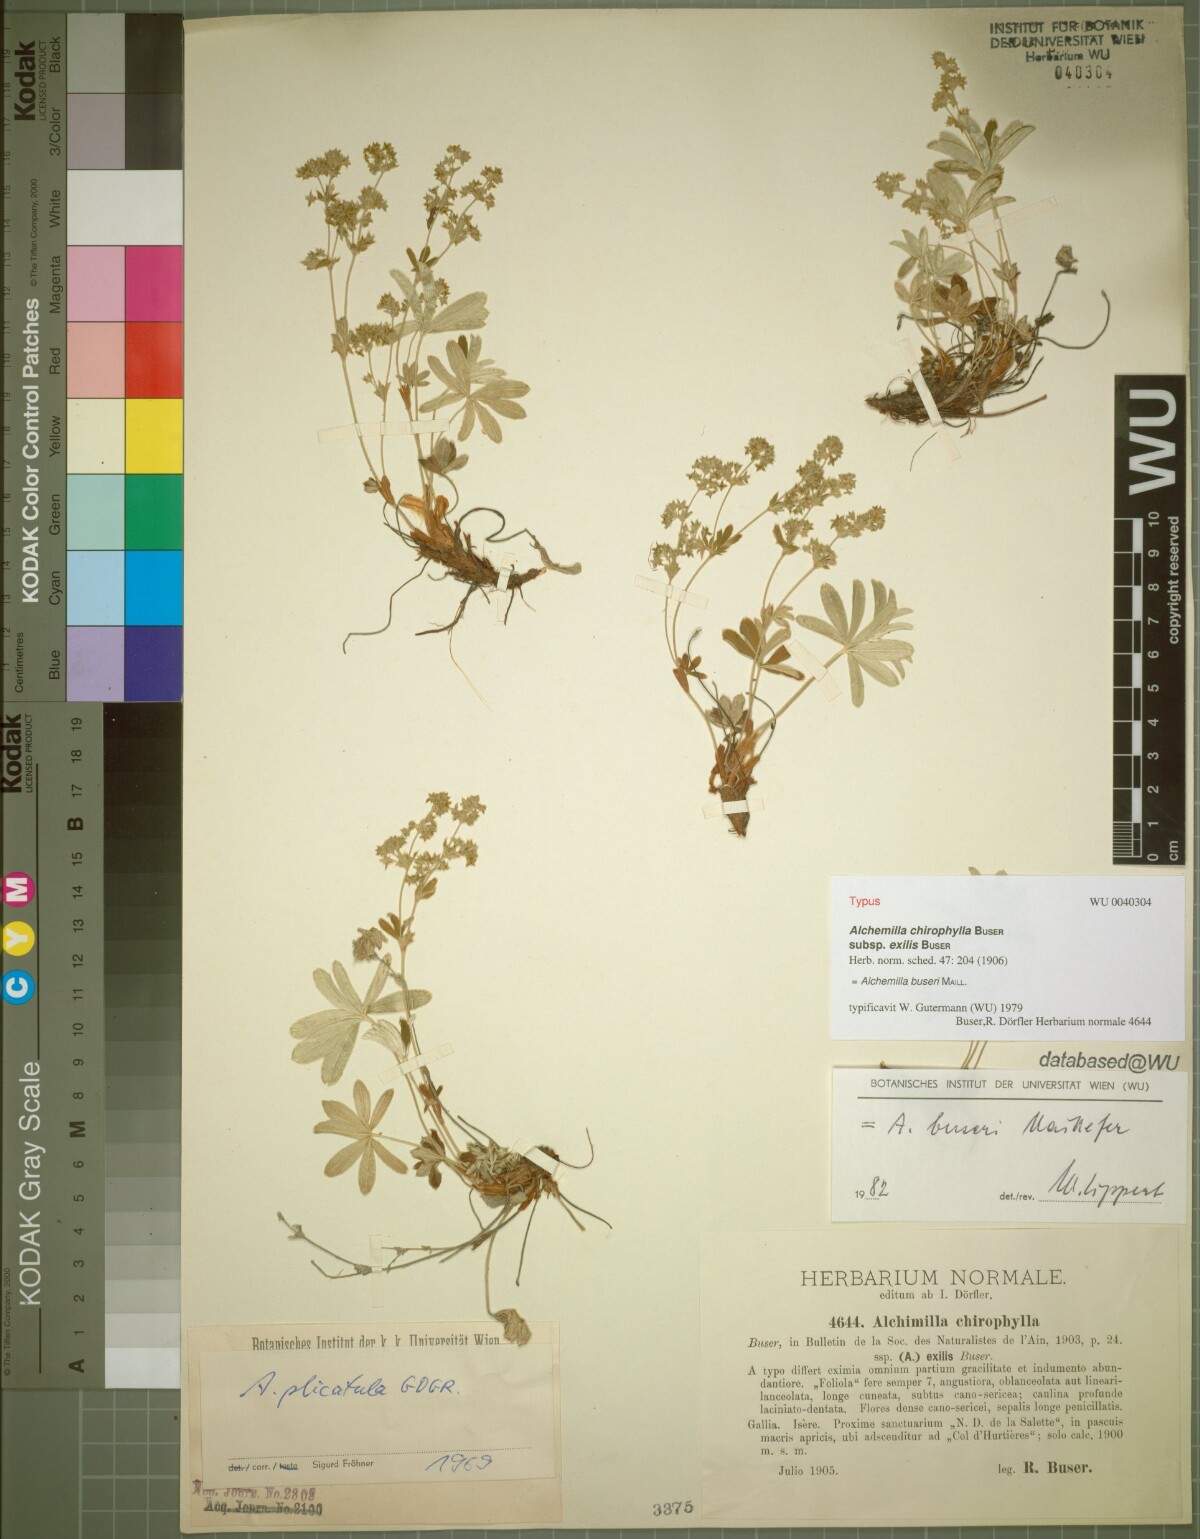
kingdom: Plantae
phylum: Tracheophyta
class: Magnoliopsida
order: Rosales
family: Rosaceae
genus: Alchemilla
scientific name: Alchemilla buseri
